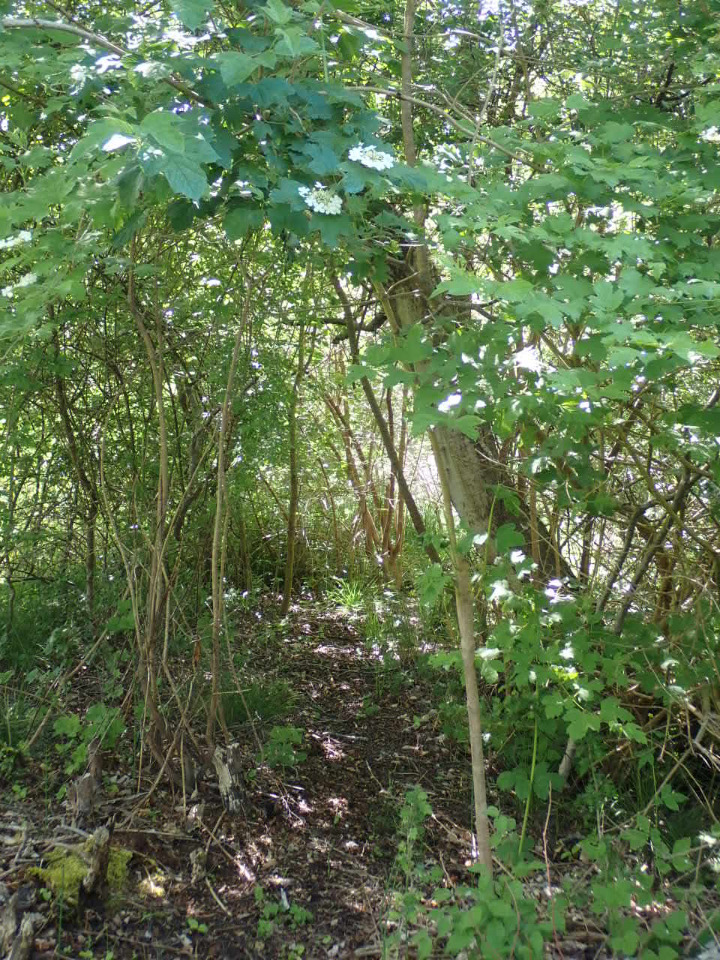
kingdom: Plantae
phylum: Tracheophyta
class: Magnoliopsida
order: Dipsacales
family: Viburnaceae
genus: Viburnum
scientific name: Viburnum opulus
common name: Kvalkved
